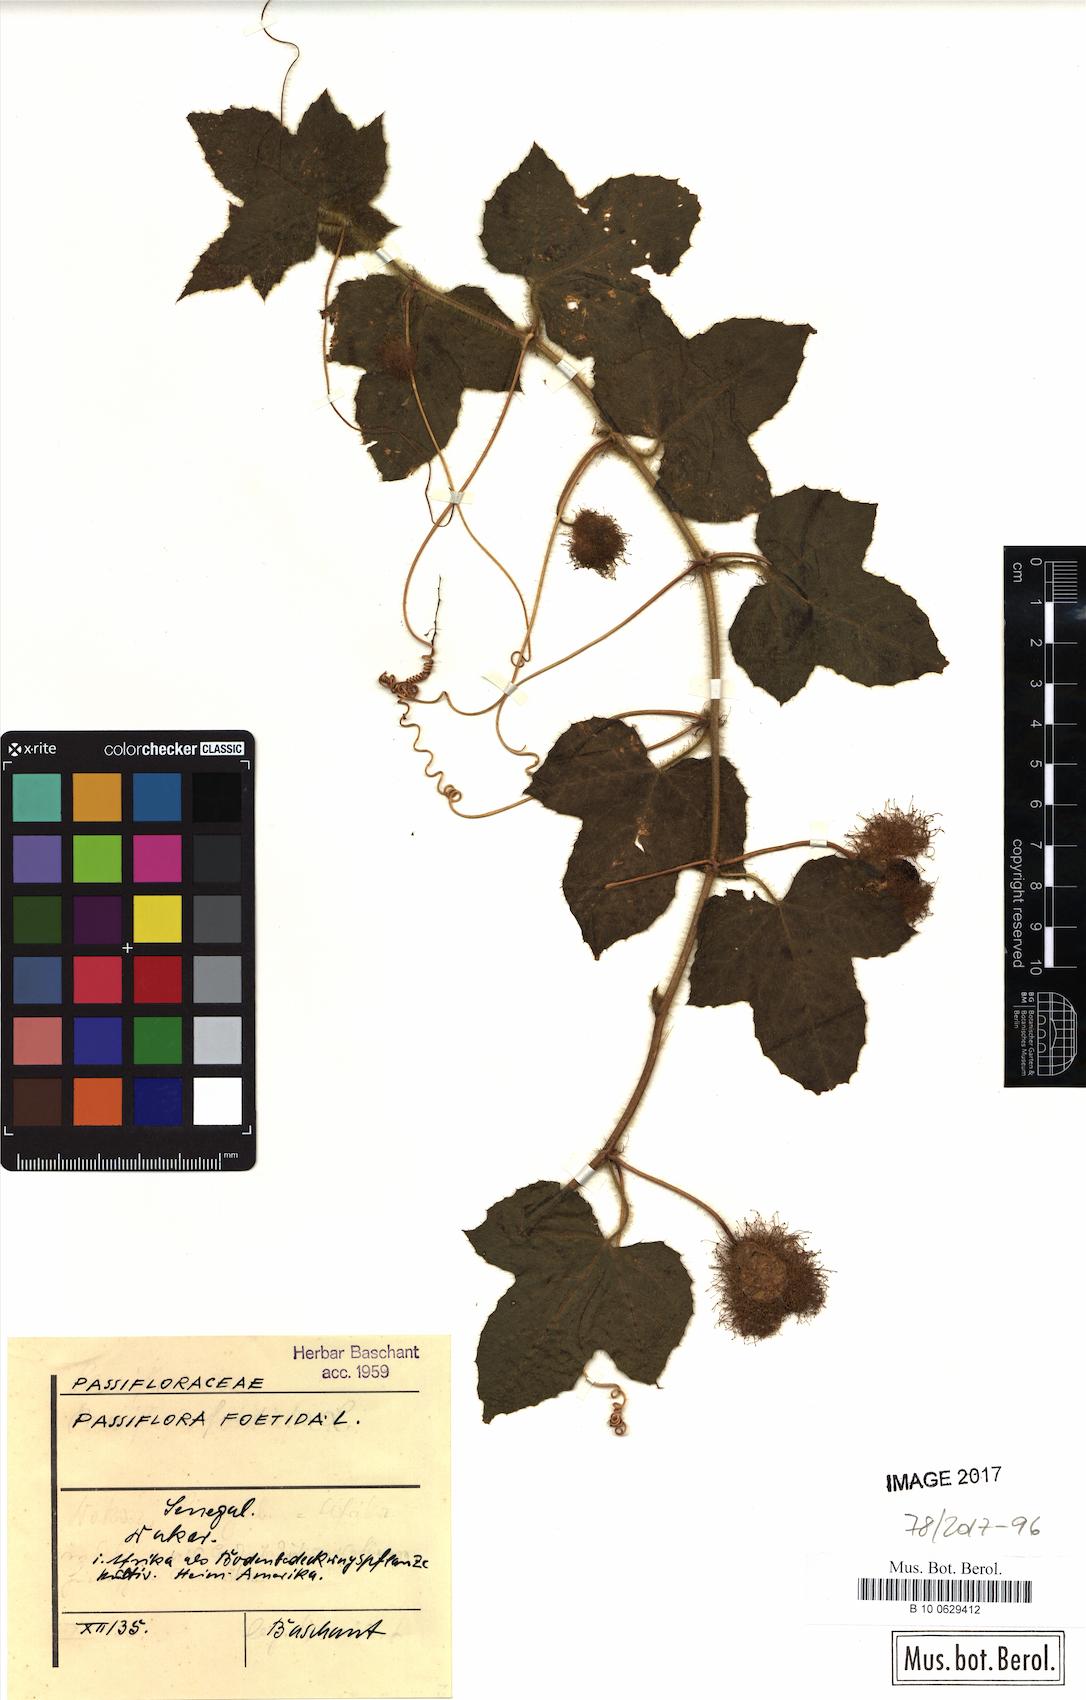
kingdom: Plantae
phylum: Tracheophyta
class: Magnoliopsida
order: Malpighiales
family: Passifloraceae
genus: Passiflora
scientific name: Passiflora foetida
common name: Fetid passionflower
